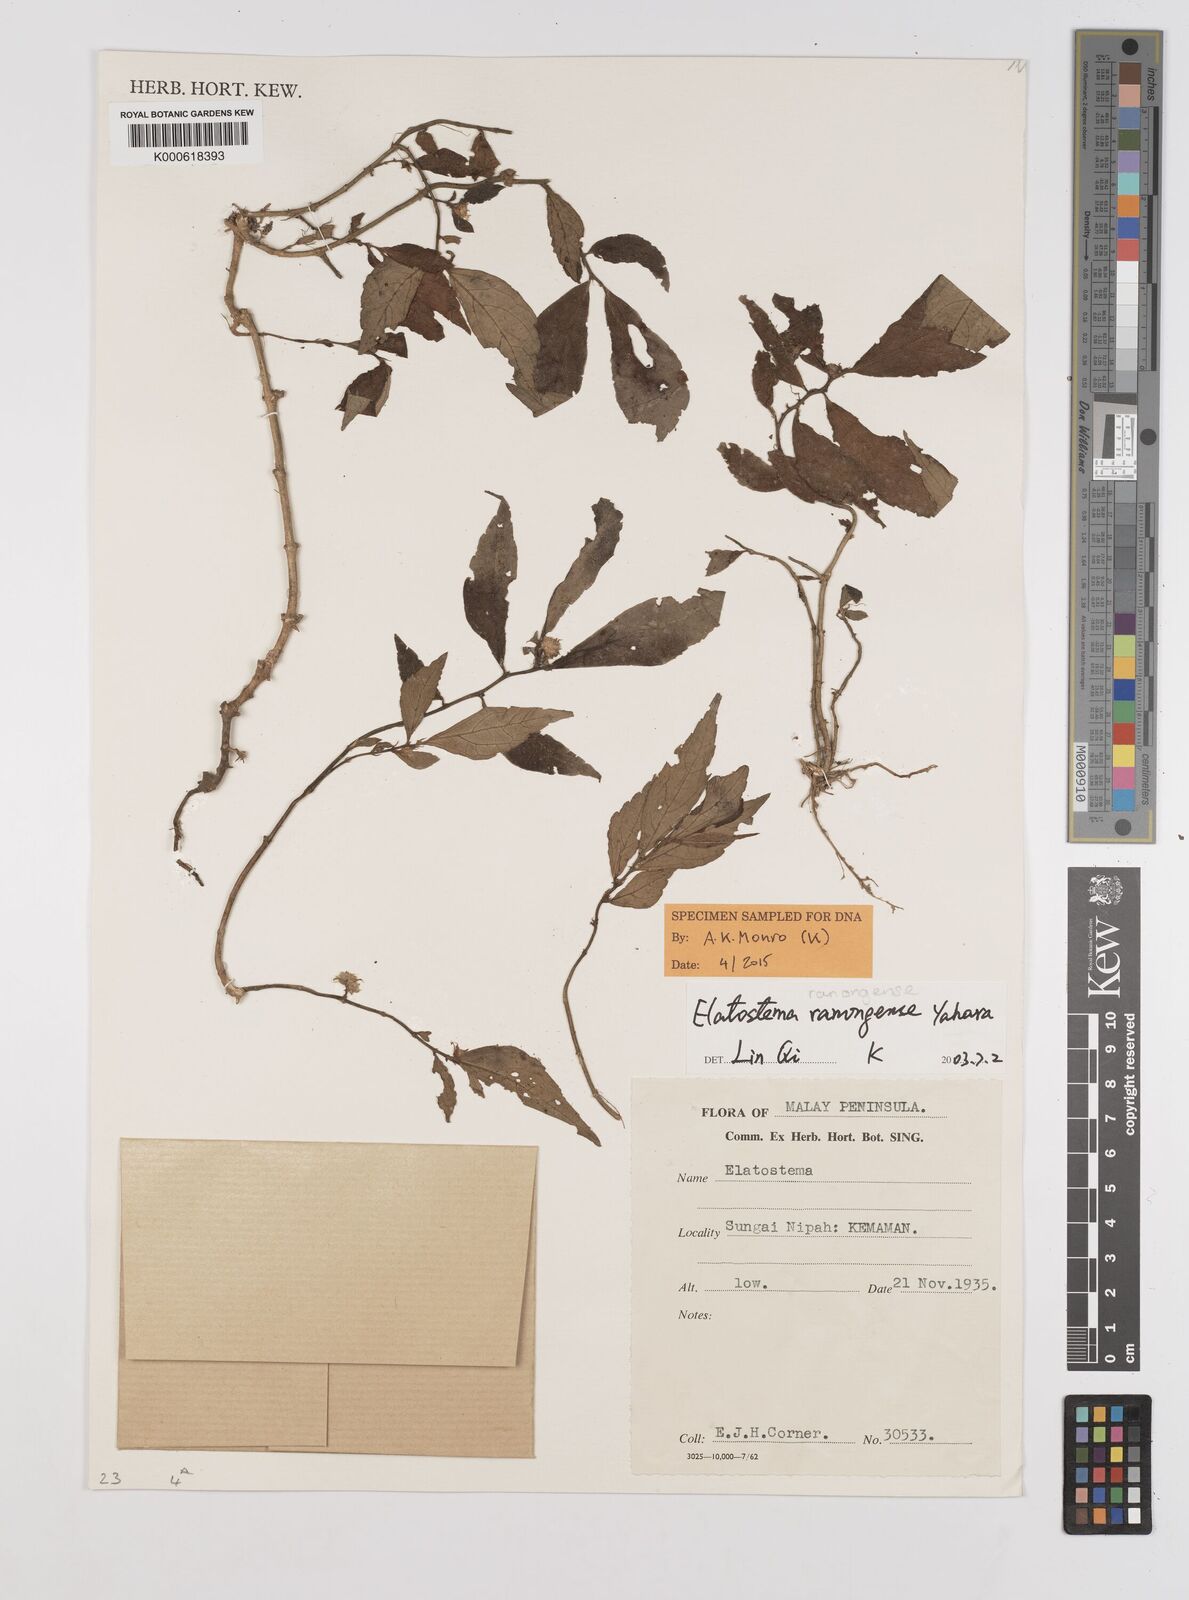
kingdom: Plantae
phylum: Tracheophyta
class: Magnoliopsida
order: Rosales
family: Urticaceae
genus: Elatostema
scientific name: Elatostema ranongense
